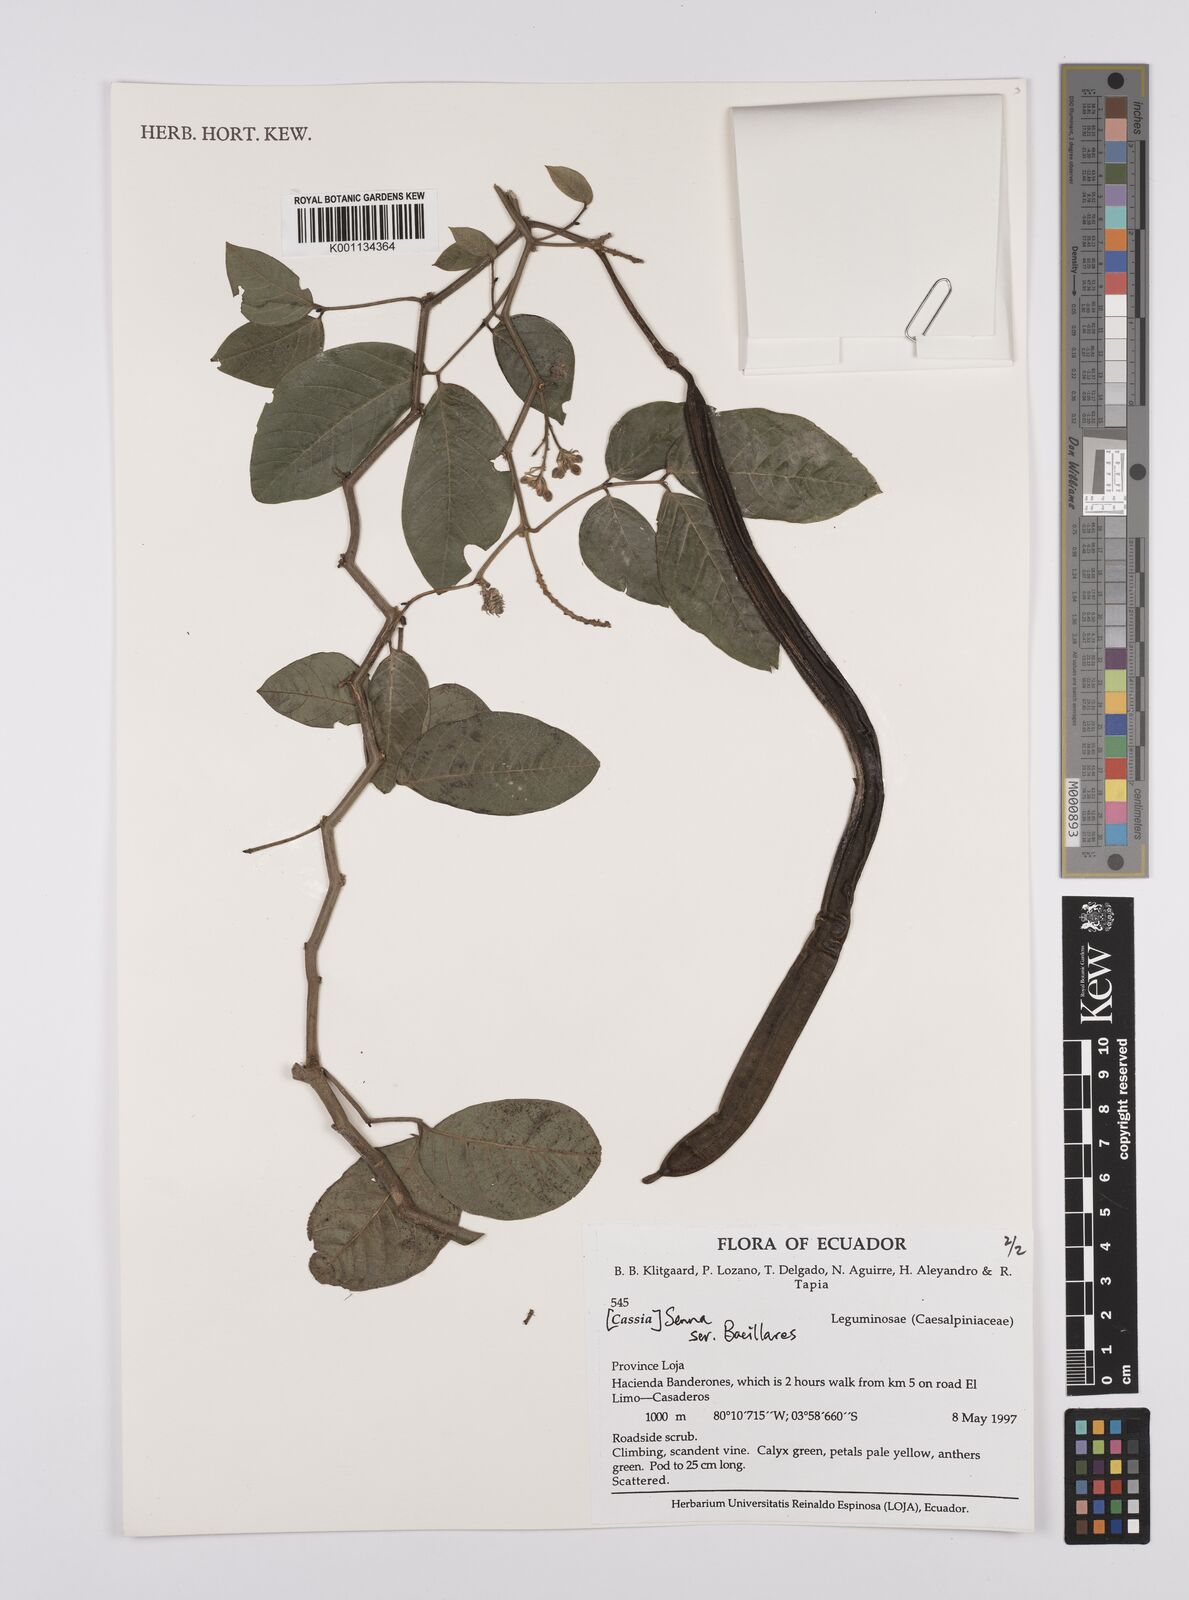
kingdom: Plantae
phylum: Tracheophyta
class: Magnoliopsida
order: Fabales
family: Fabaceae
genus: Senna
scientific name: Senna
